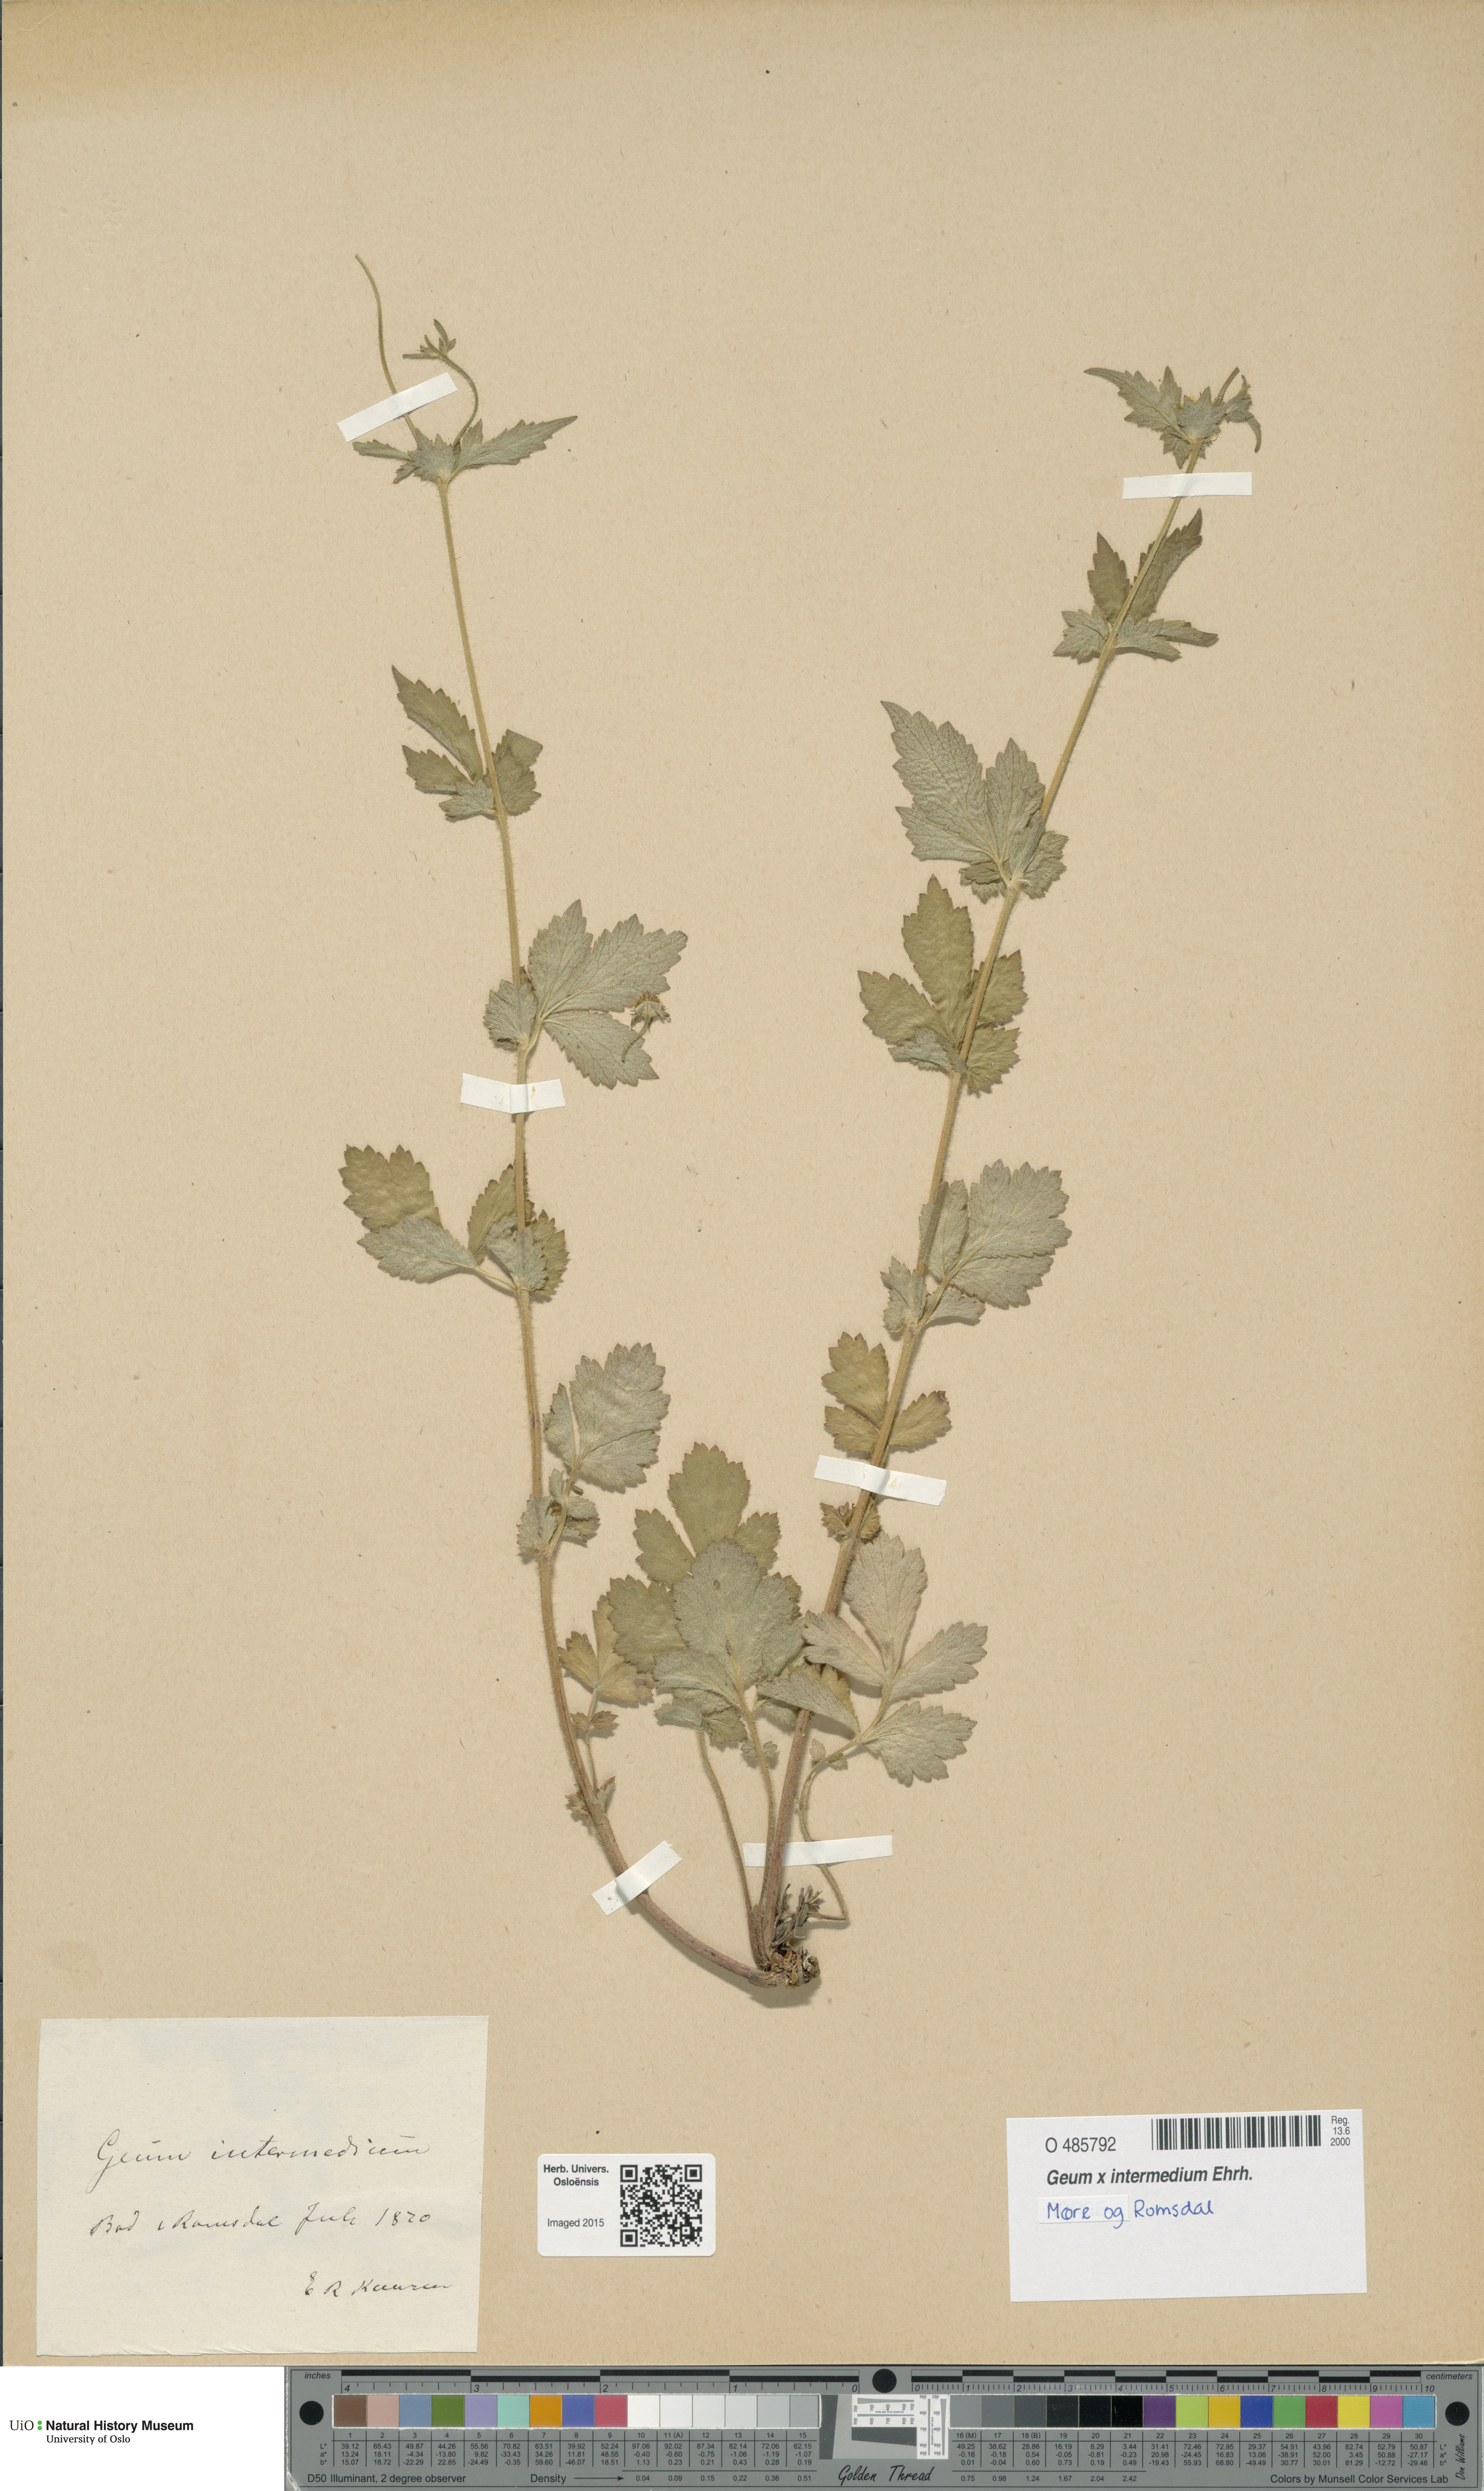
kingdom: Plantae
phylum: Tracheophyta
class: Magnoliopsida
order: Rosales
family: Rosaceae
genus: Geum
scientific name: Geum intermedium
